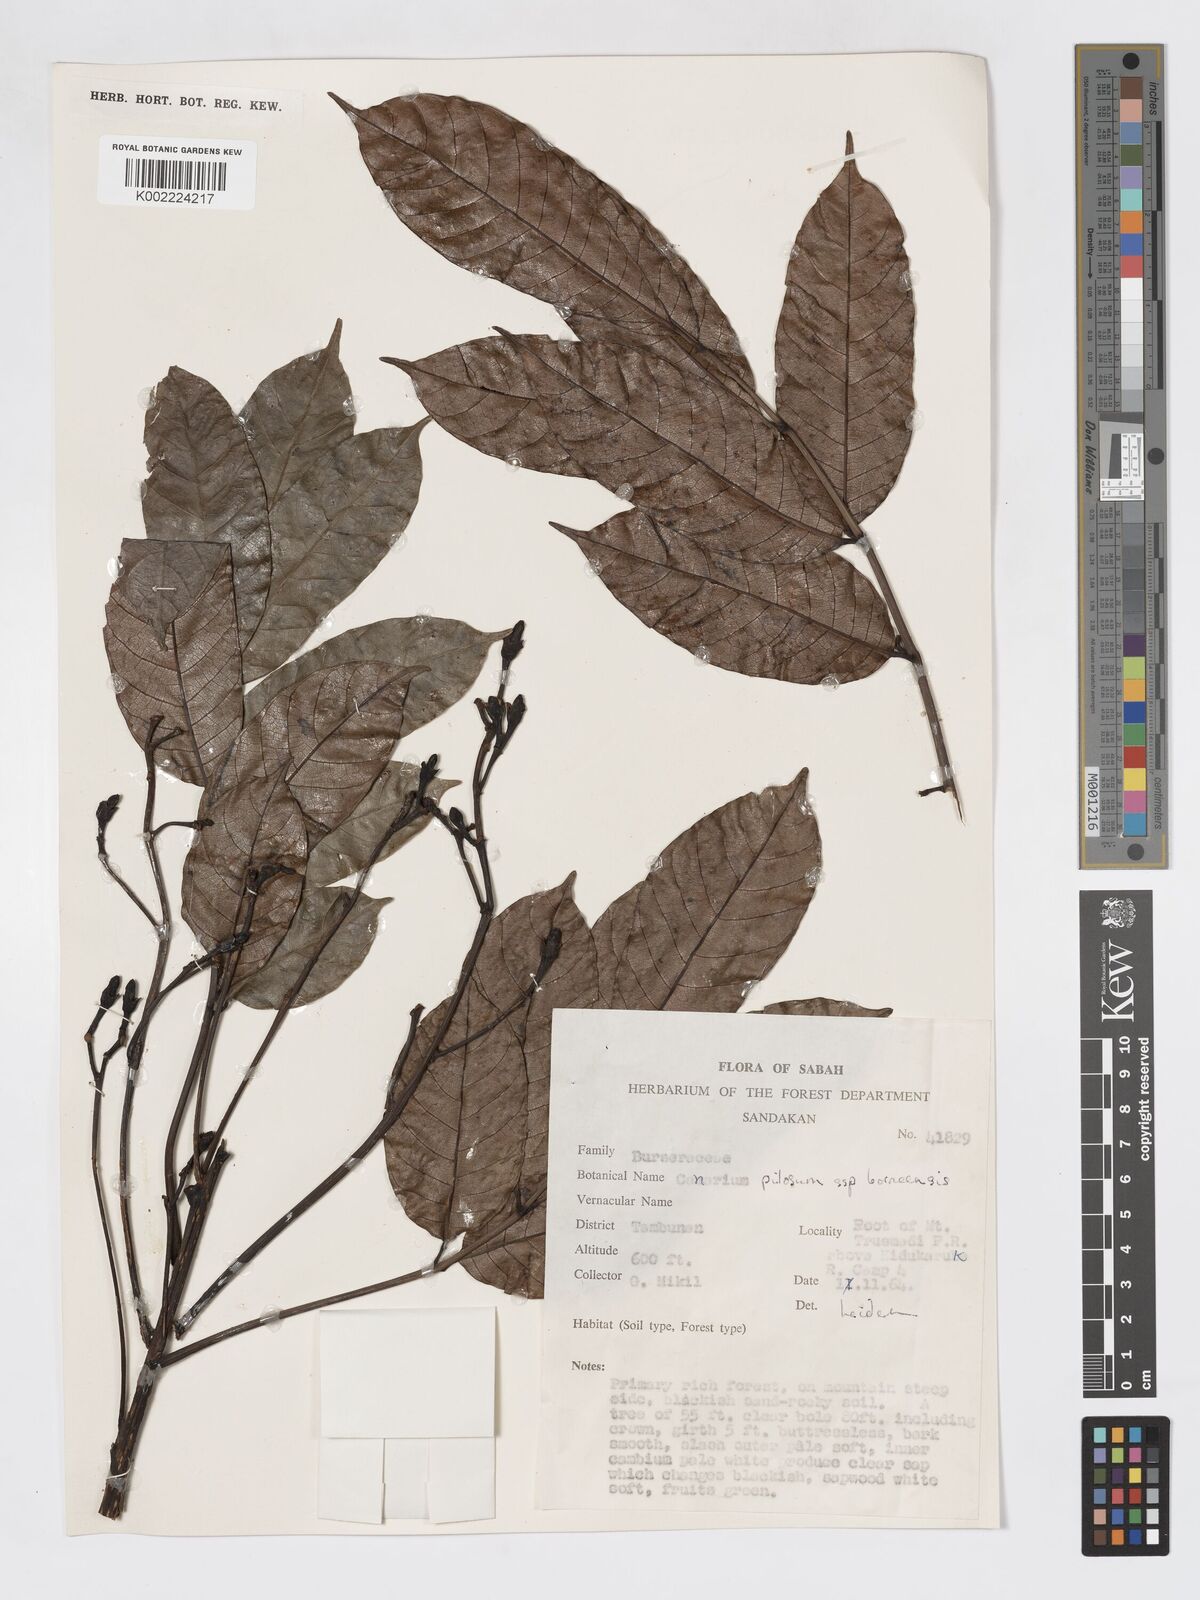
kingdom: Plantae
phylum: Tracheophyta
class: Magnoliopsida
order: Sapindales
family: Burseraceae
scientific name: Burseraceae
